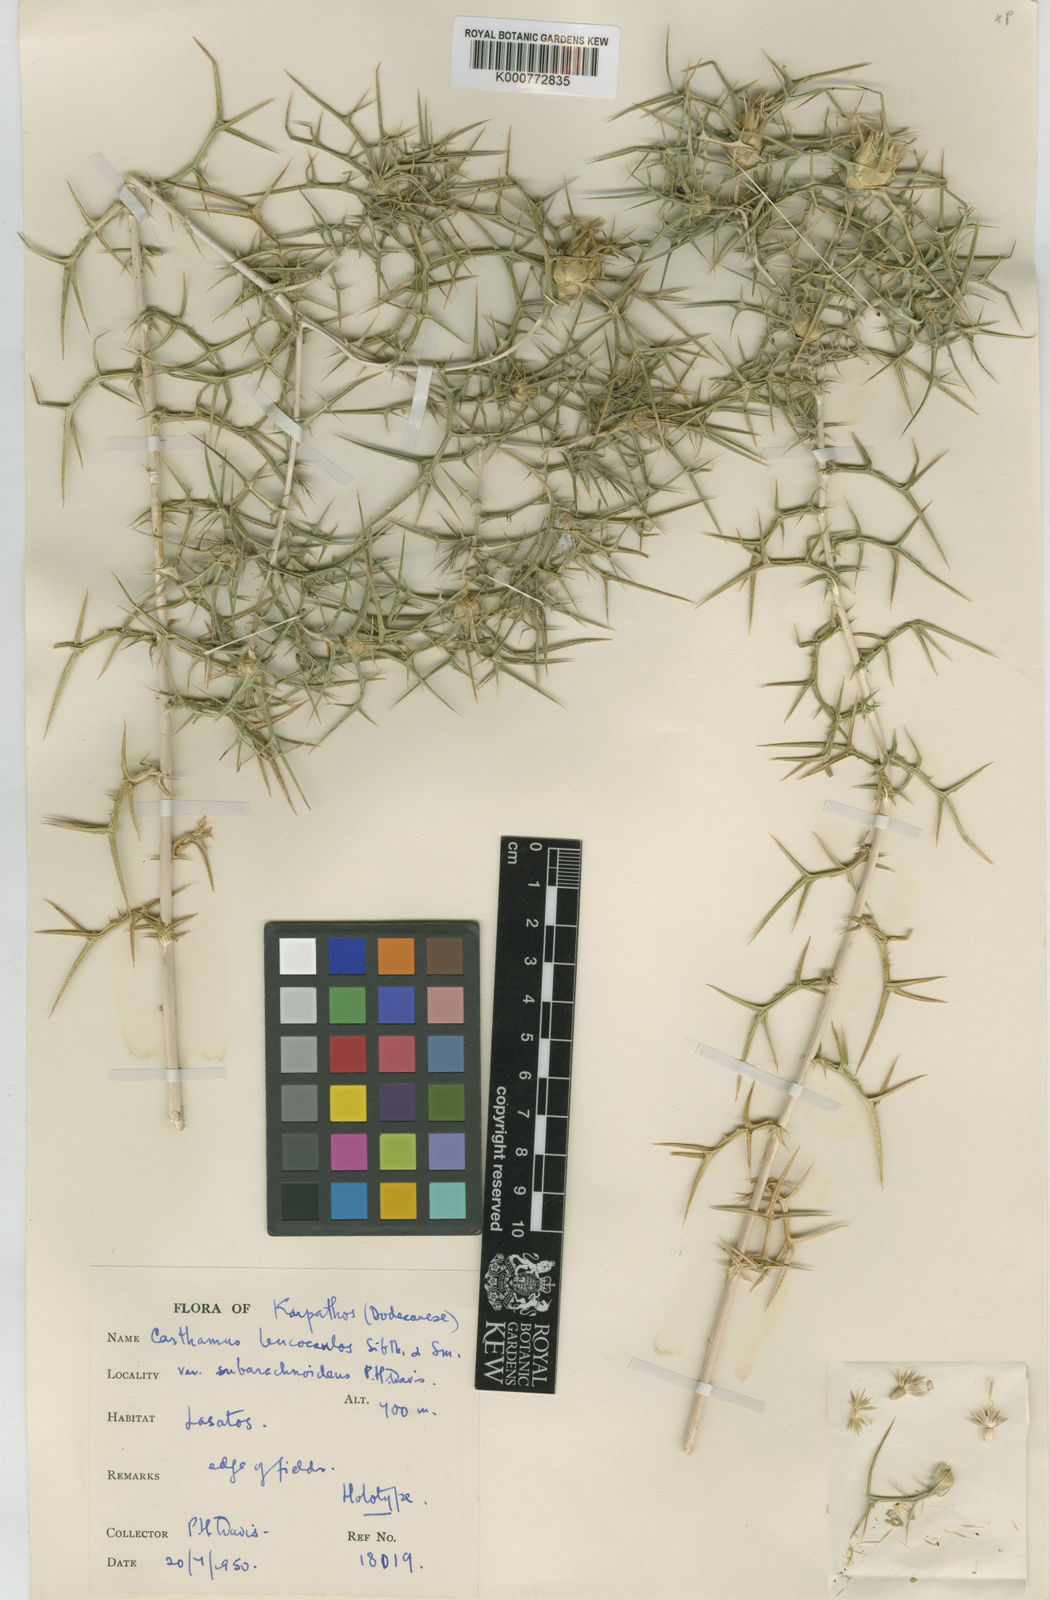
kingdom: Plantae
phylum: Tracheophyta
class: Magnoliopsida
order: Asterales
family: Asteraceae
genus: Carthamus
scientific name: Carthamus leucocaulos
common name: Whitestem distaff thistle
